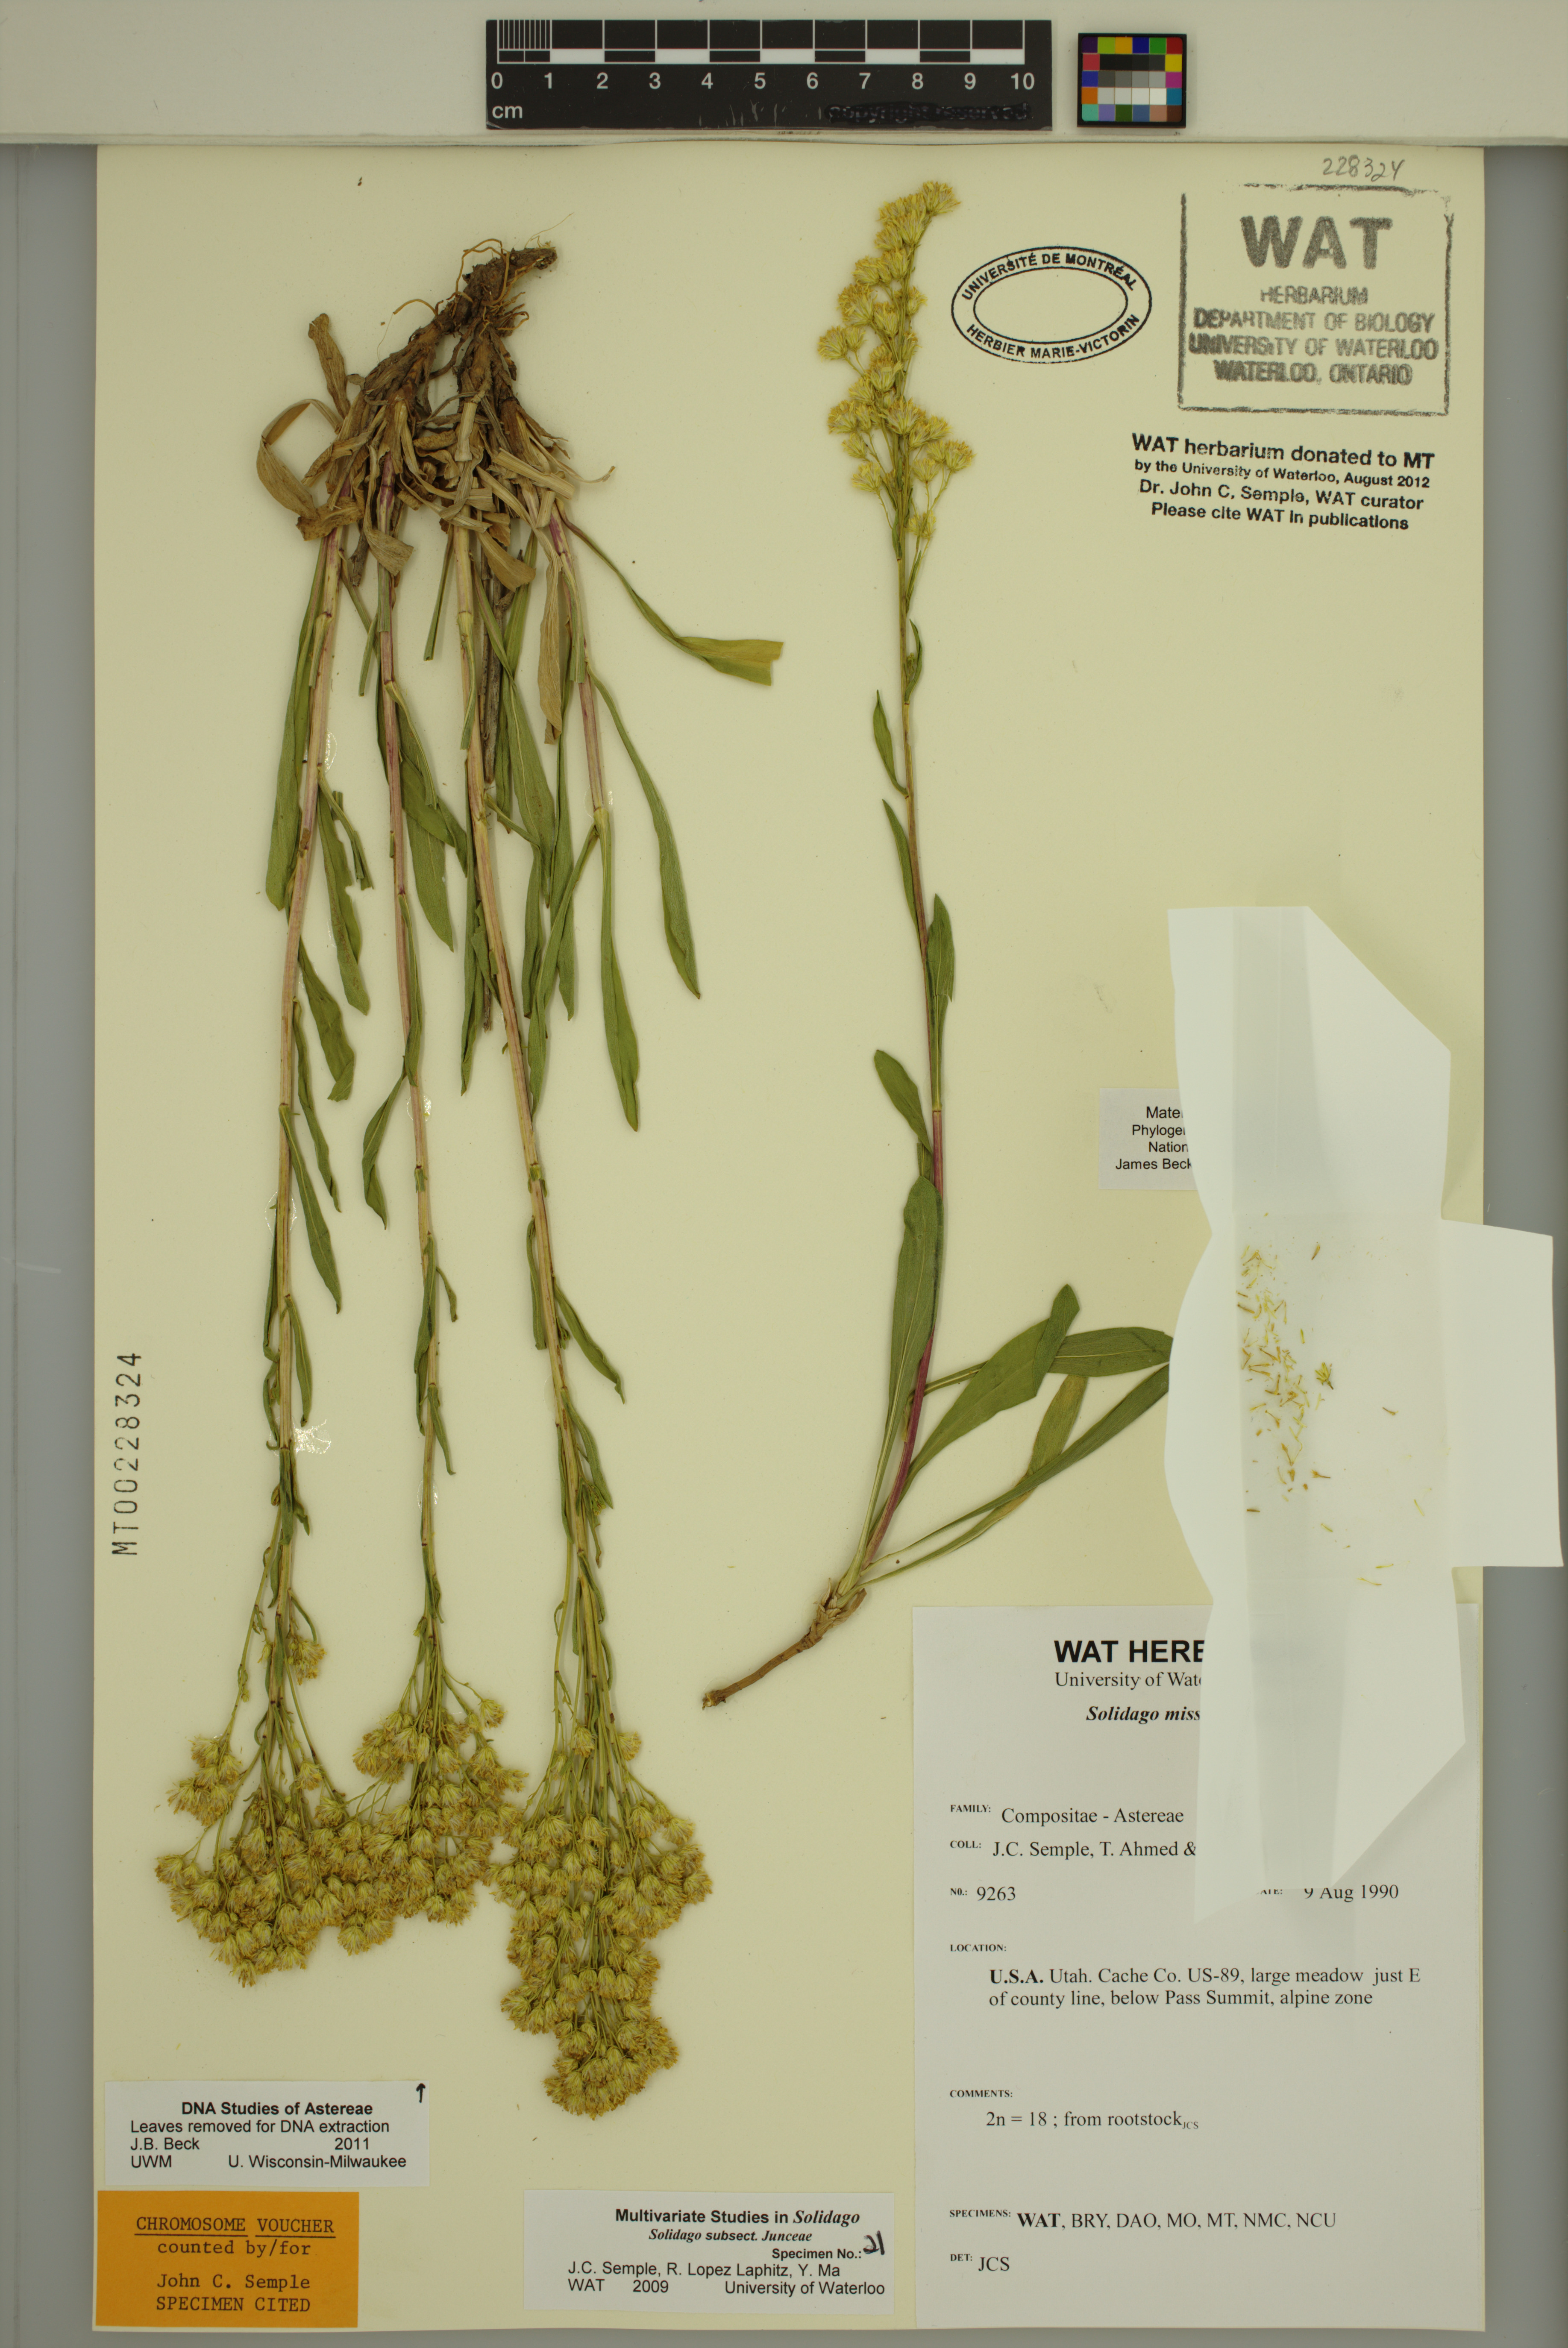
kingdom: Plantae
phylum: Tracheophyta
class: Magnoliopsida
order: Asterales
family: Asteraceae
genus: Solidago
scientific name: Solidago missouriensis
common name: Prairie goldenrod
